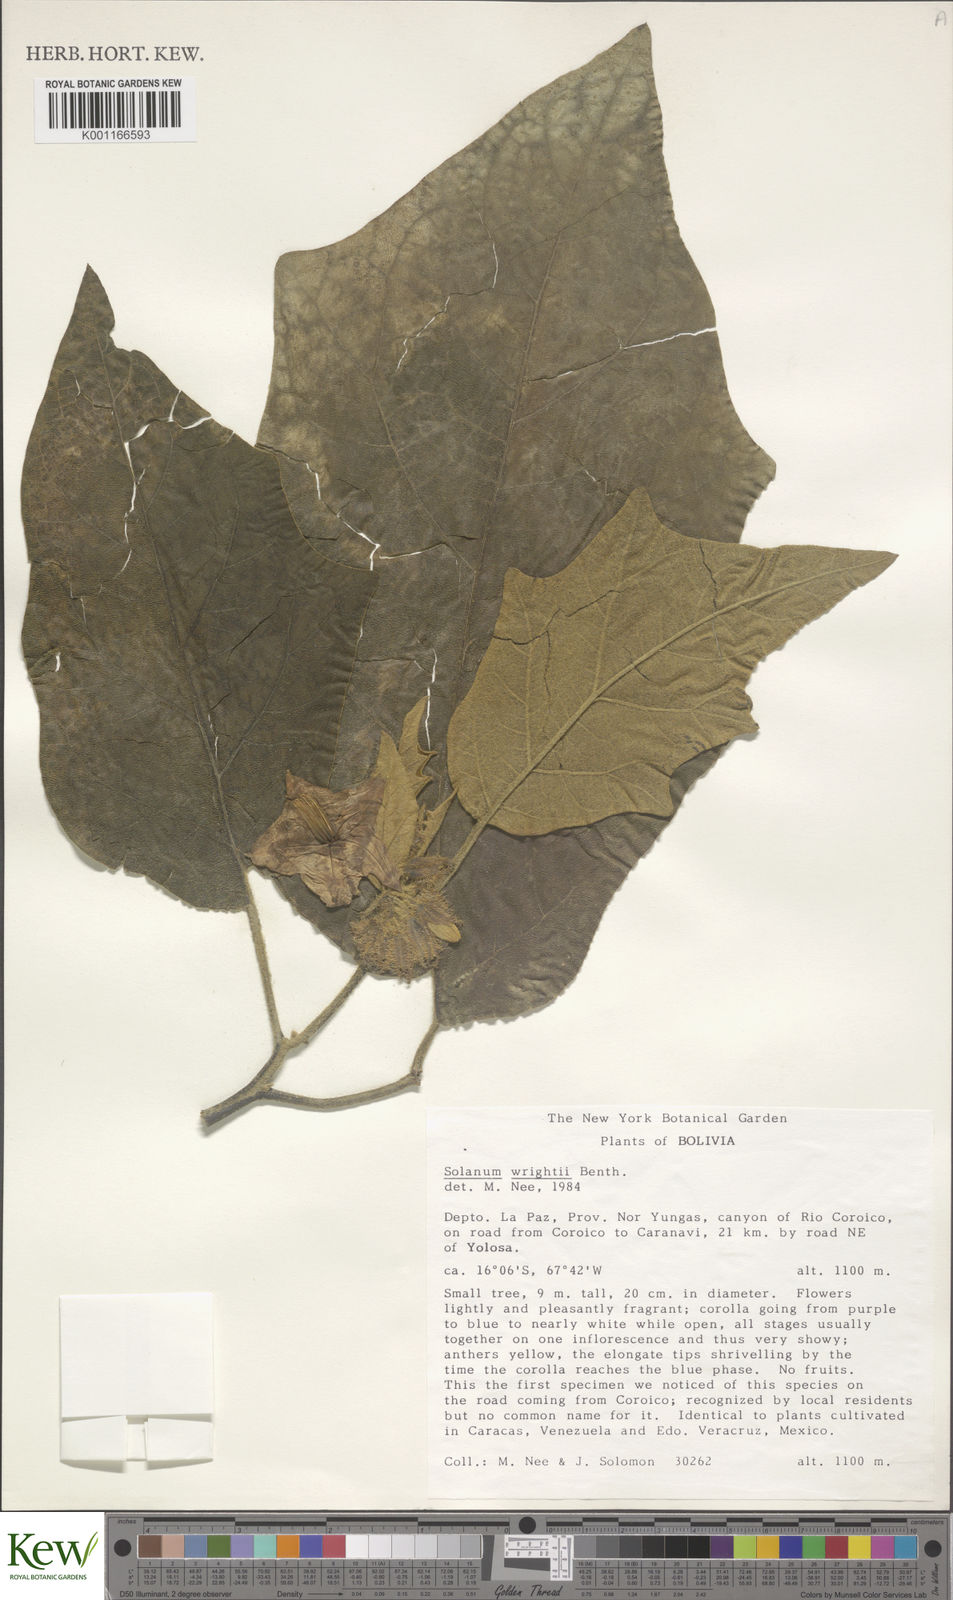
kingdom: Plantae
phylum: Tracheophyta
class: Magnoliopsida
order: Solanales
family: Solanaceae
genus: Solanum
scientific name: Solanum wrightii
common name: Brazilian potato-tree
